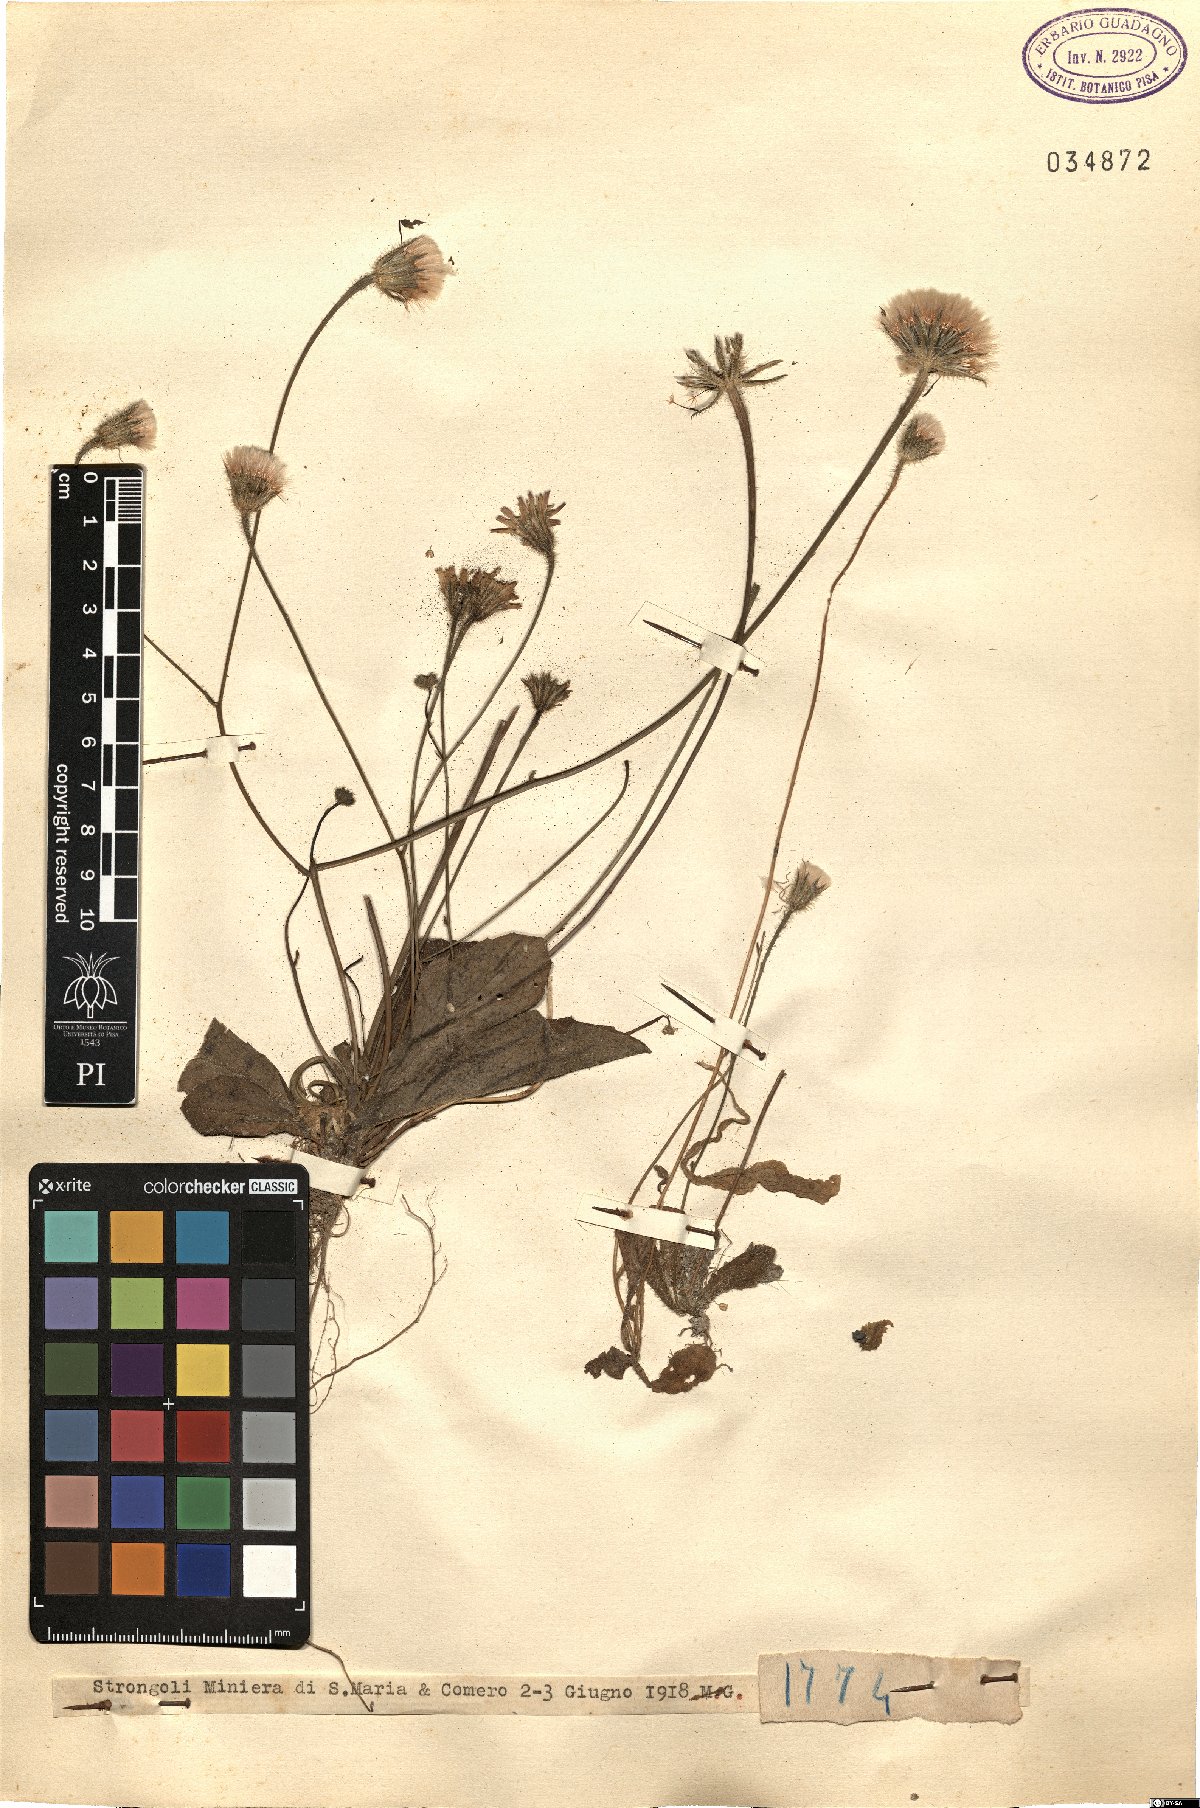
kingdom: Plantae
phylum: Tracheophyta
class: Magnoliopsida
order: Asterales
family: Asteraceae
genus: Hypochaeris
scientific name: Hypochaeris
